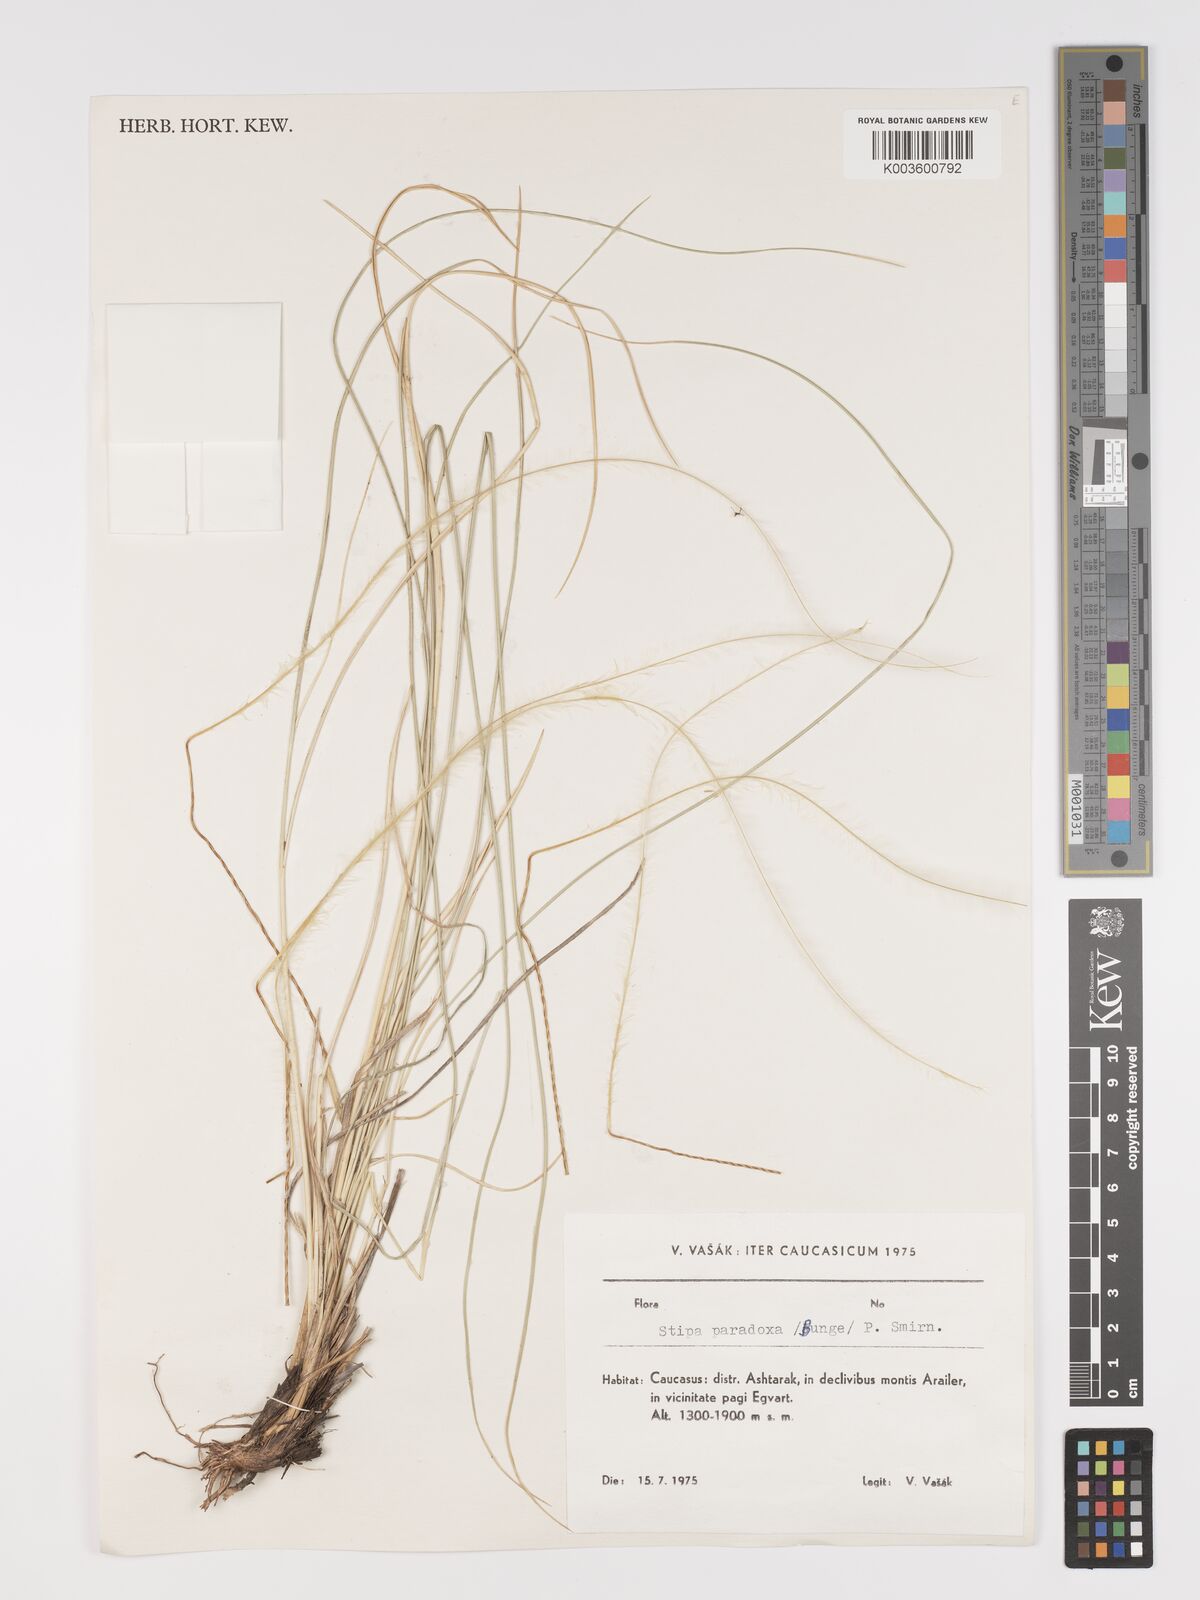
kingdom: Plantae
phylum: Tracheophyta
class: Liliopsida
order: Poales
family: Poaceae
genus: Stipa
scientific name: Stipa syreistschikowii
